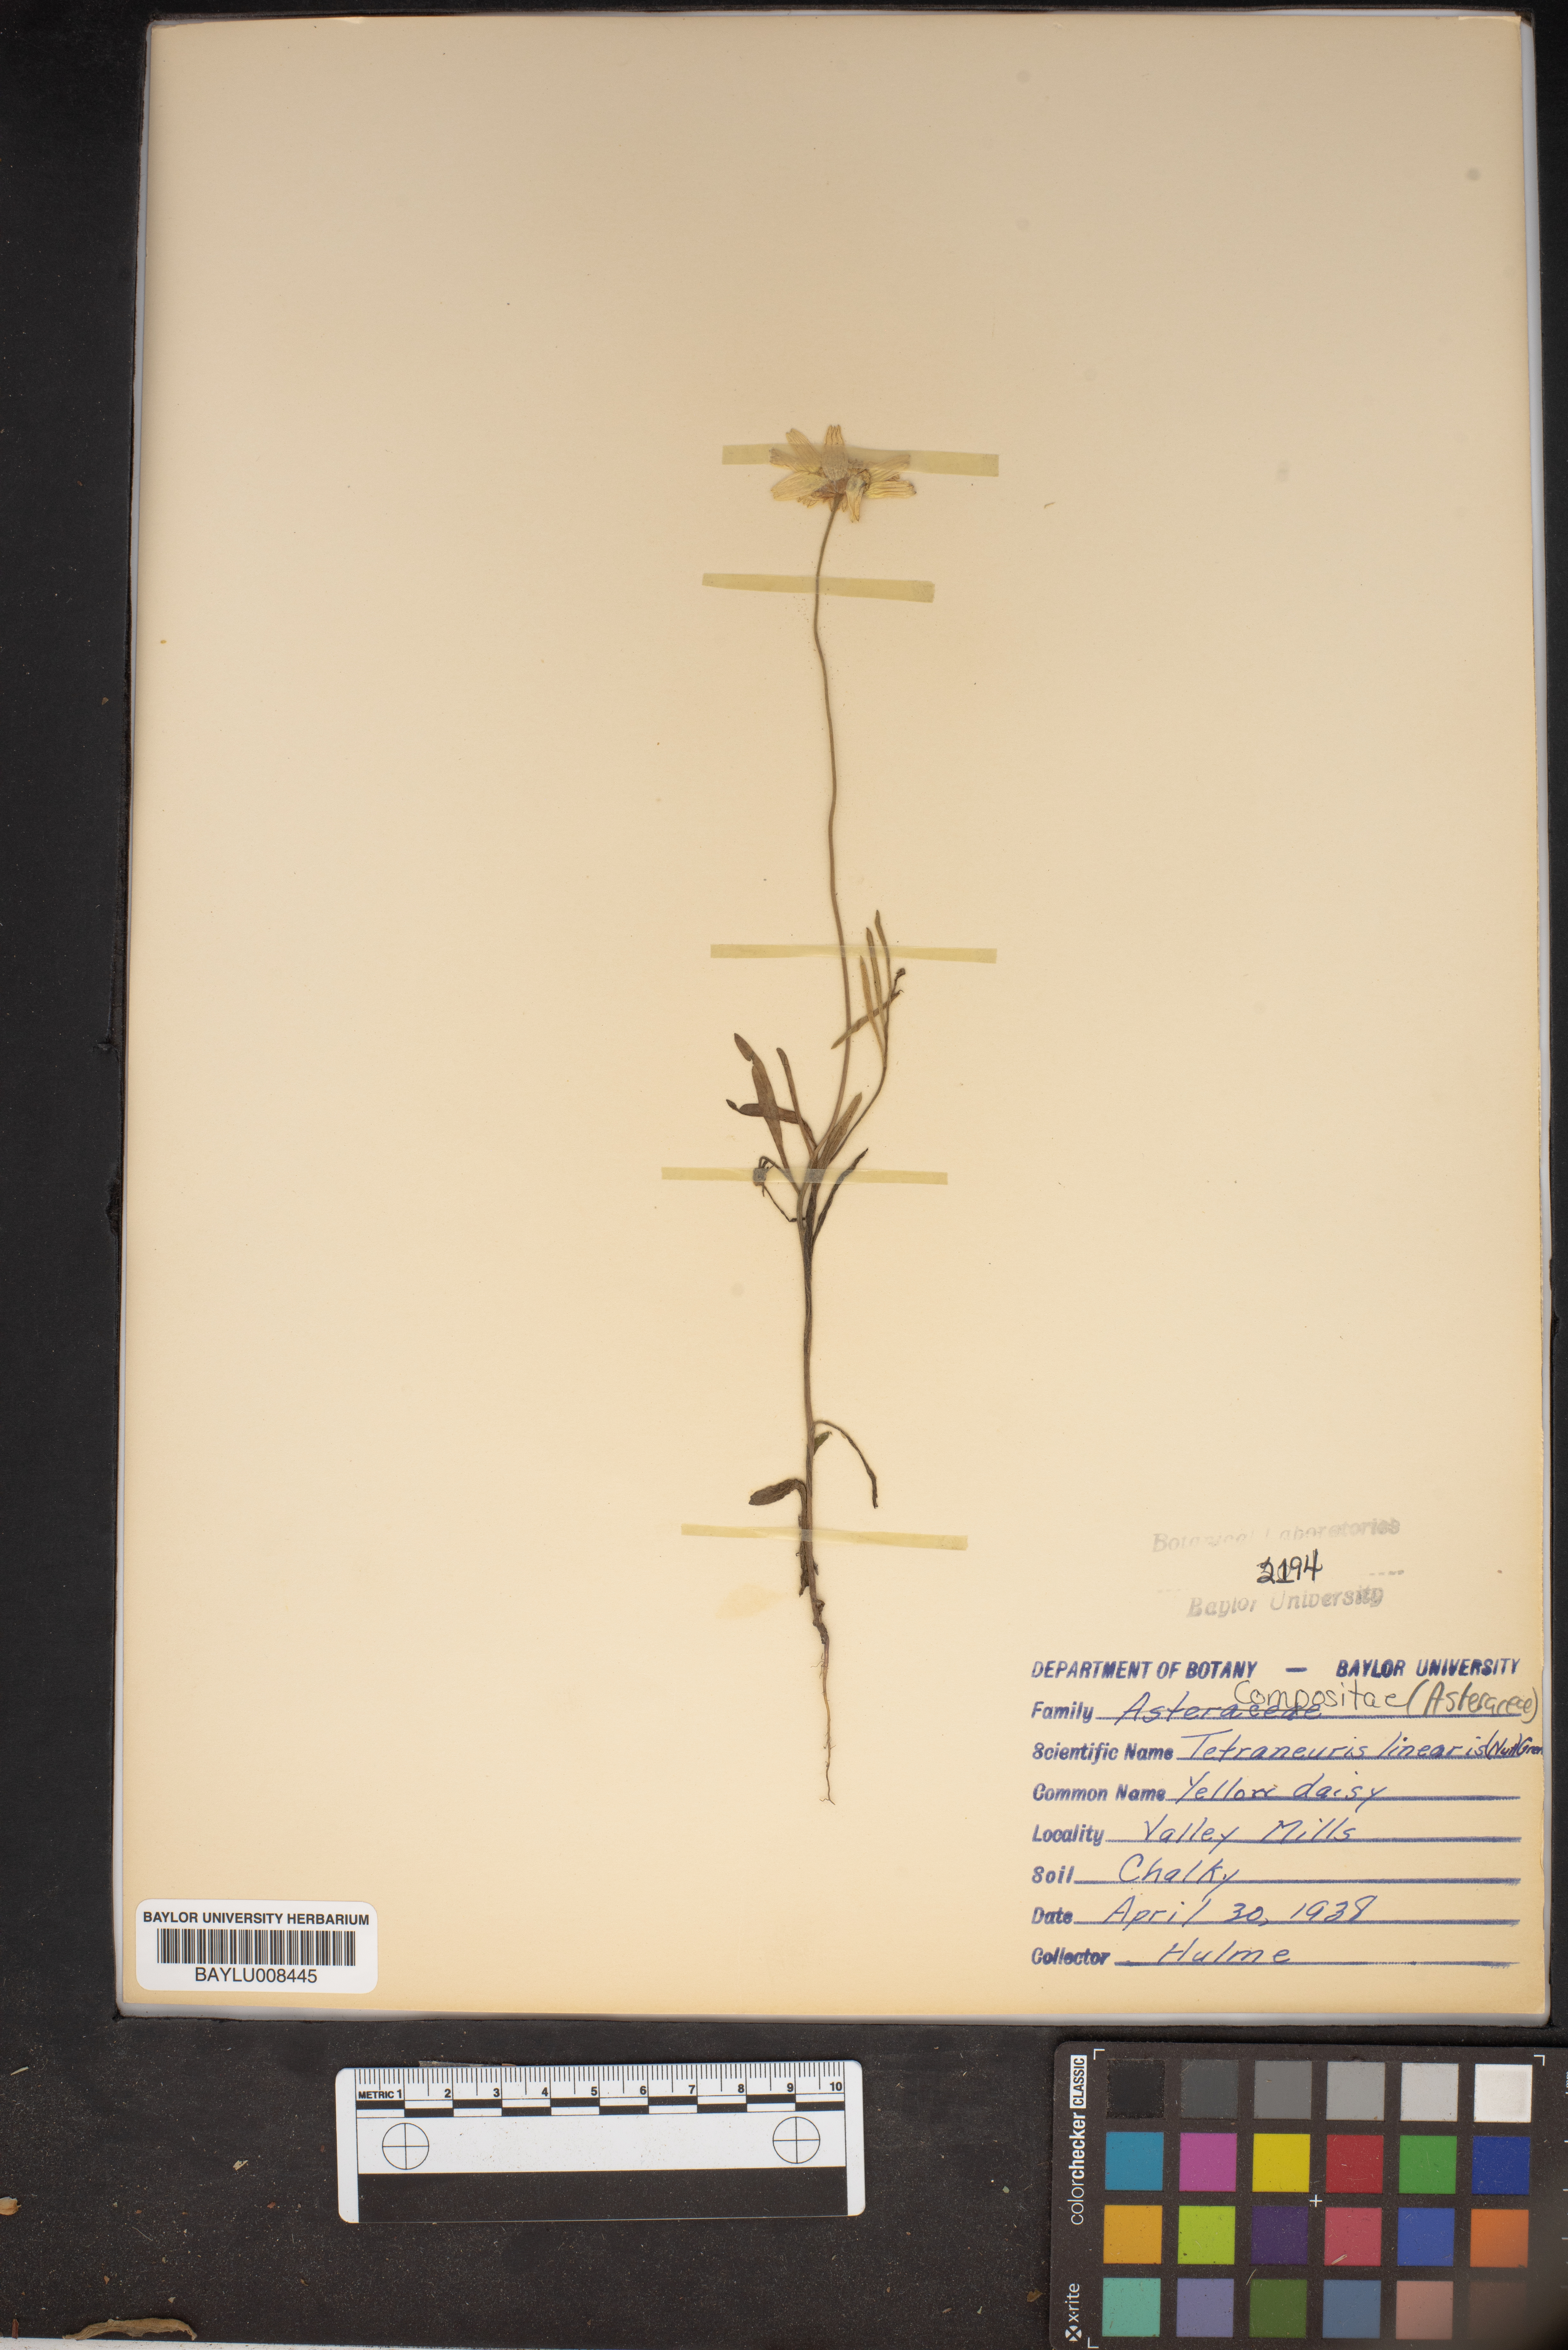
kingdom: Plantae
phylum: Tracheophyta
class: Magnoliopsida
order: Asterales
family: Asteraceae
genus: Tetraneuris
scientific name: Tetraneuris scaposa
